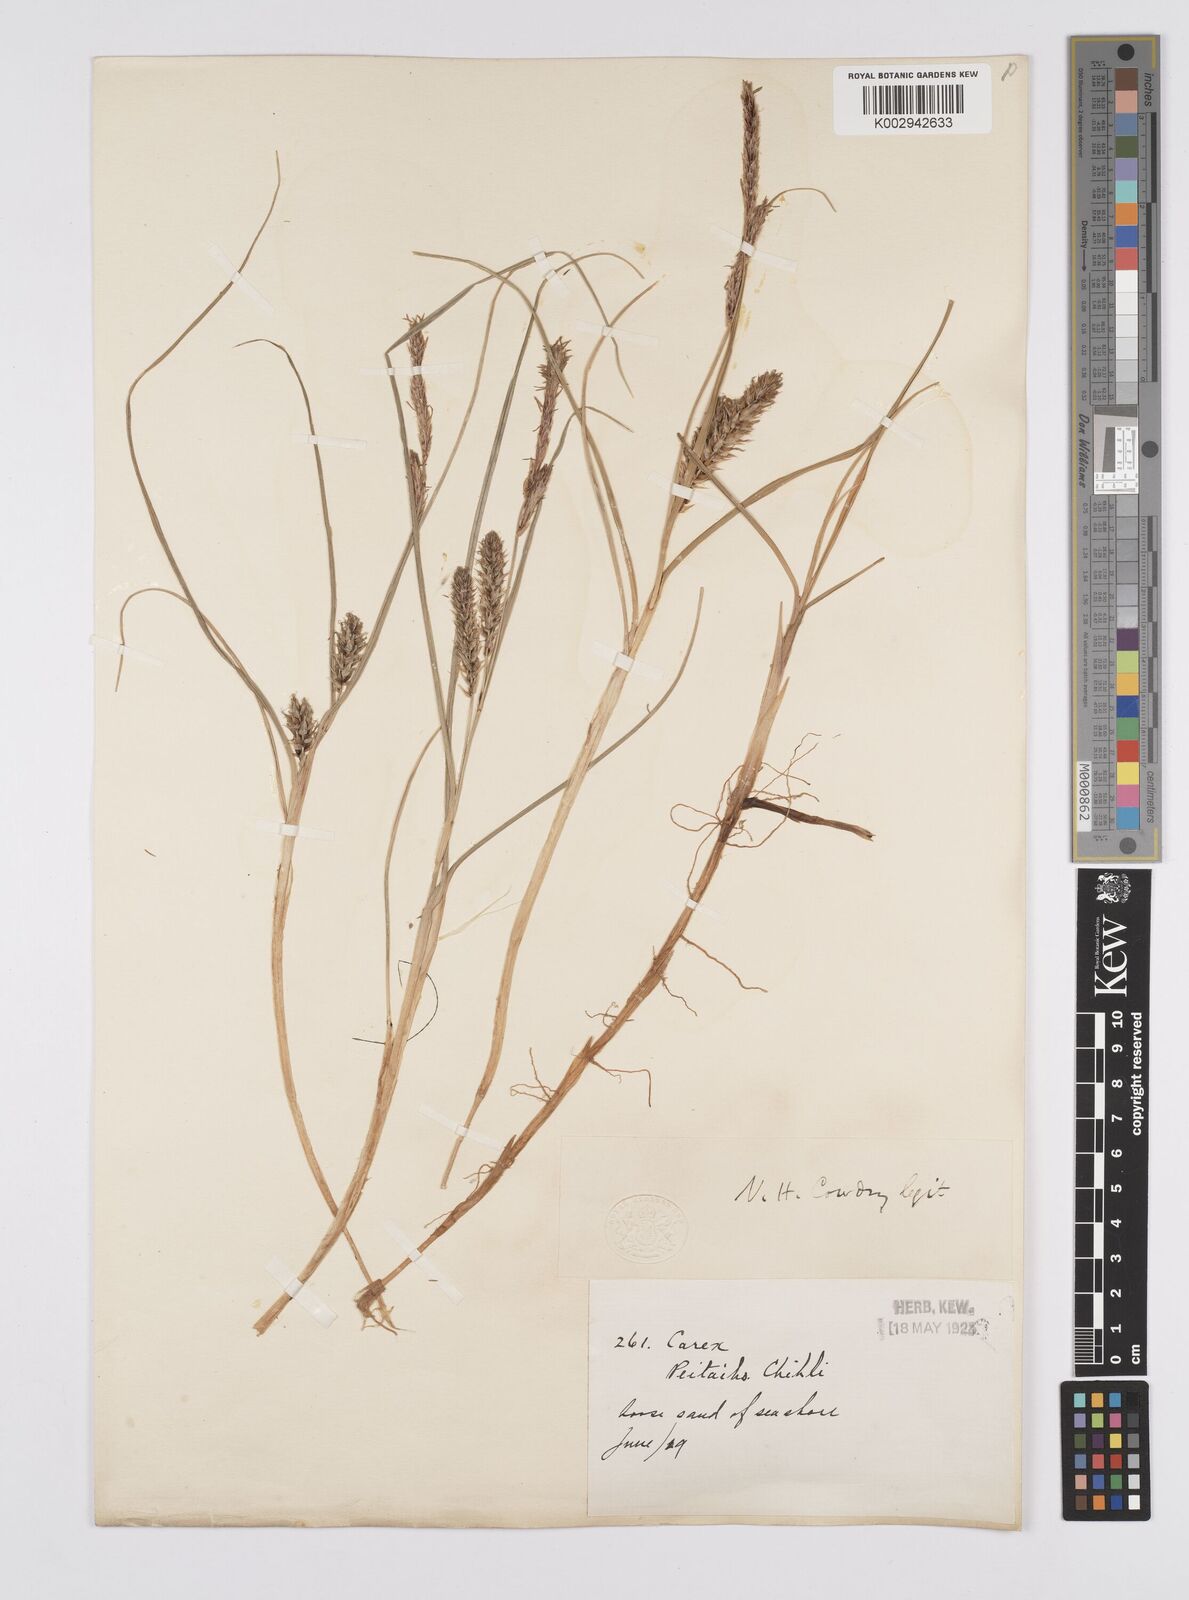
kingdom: Plantae
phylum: Tracheophyta
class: Liliopsida
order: Poales
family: Cyperaceae
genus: Carex
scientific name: Carex pumila
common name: Dwarf sedge
